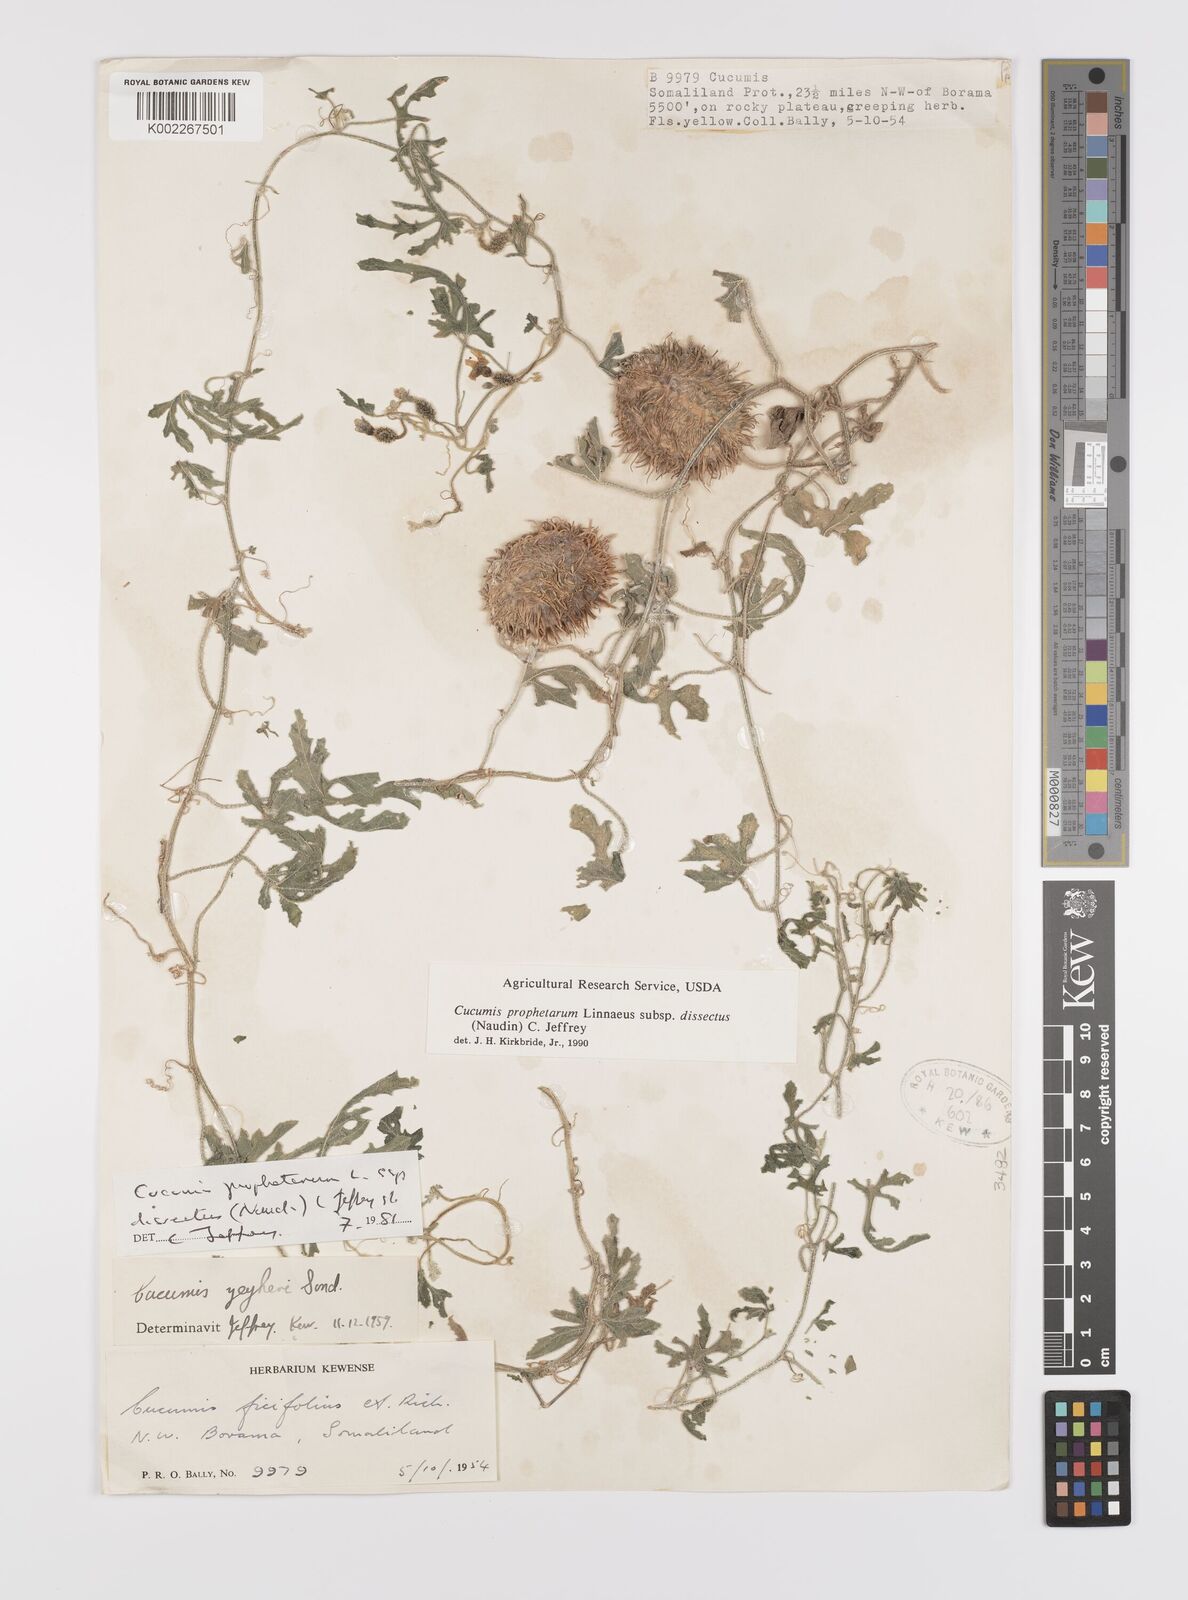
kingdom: Plantae
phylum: Tracheophyta
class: Magnoliopsida
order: Cucurbitales
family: Cucurbitaceae
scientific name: Cucurbitaceae
